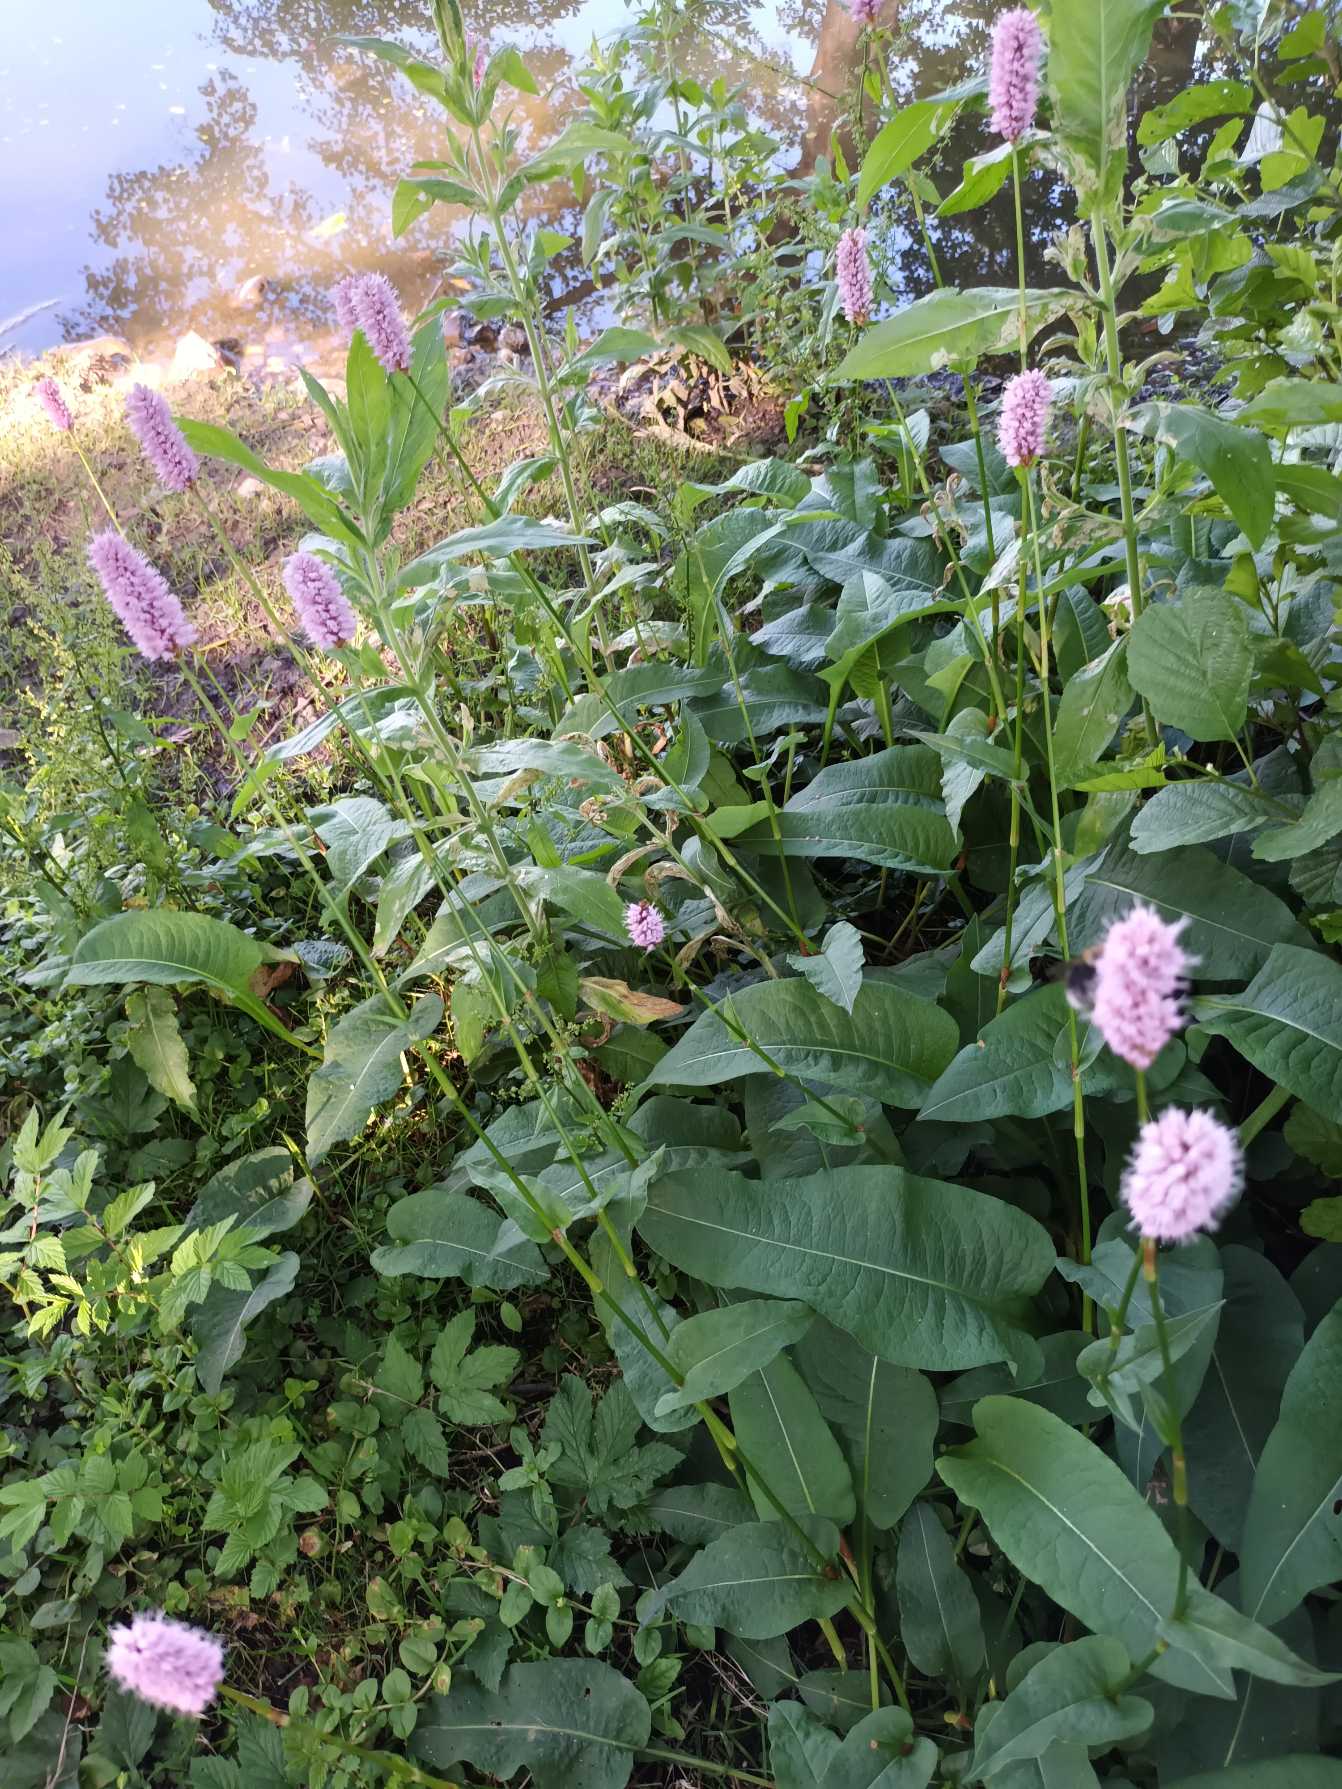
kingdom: Plantae
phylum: Tracheophyta
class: Magnoliopsida
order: Caryophyllales
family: Polygonaceae
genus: Bistorta
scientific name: Bistorta officinalis
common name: Slangeurt
